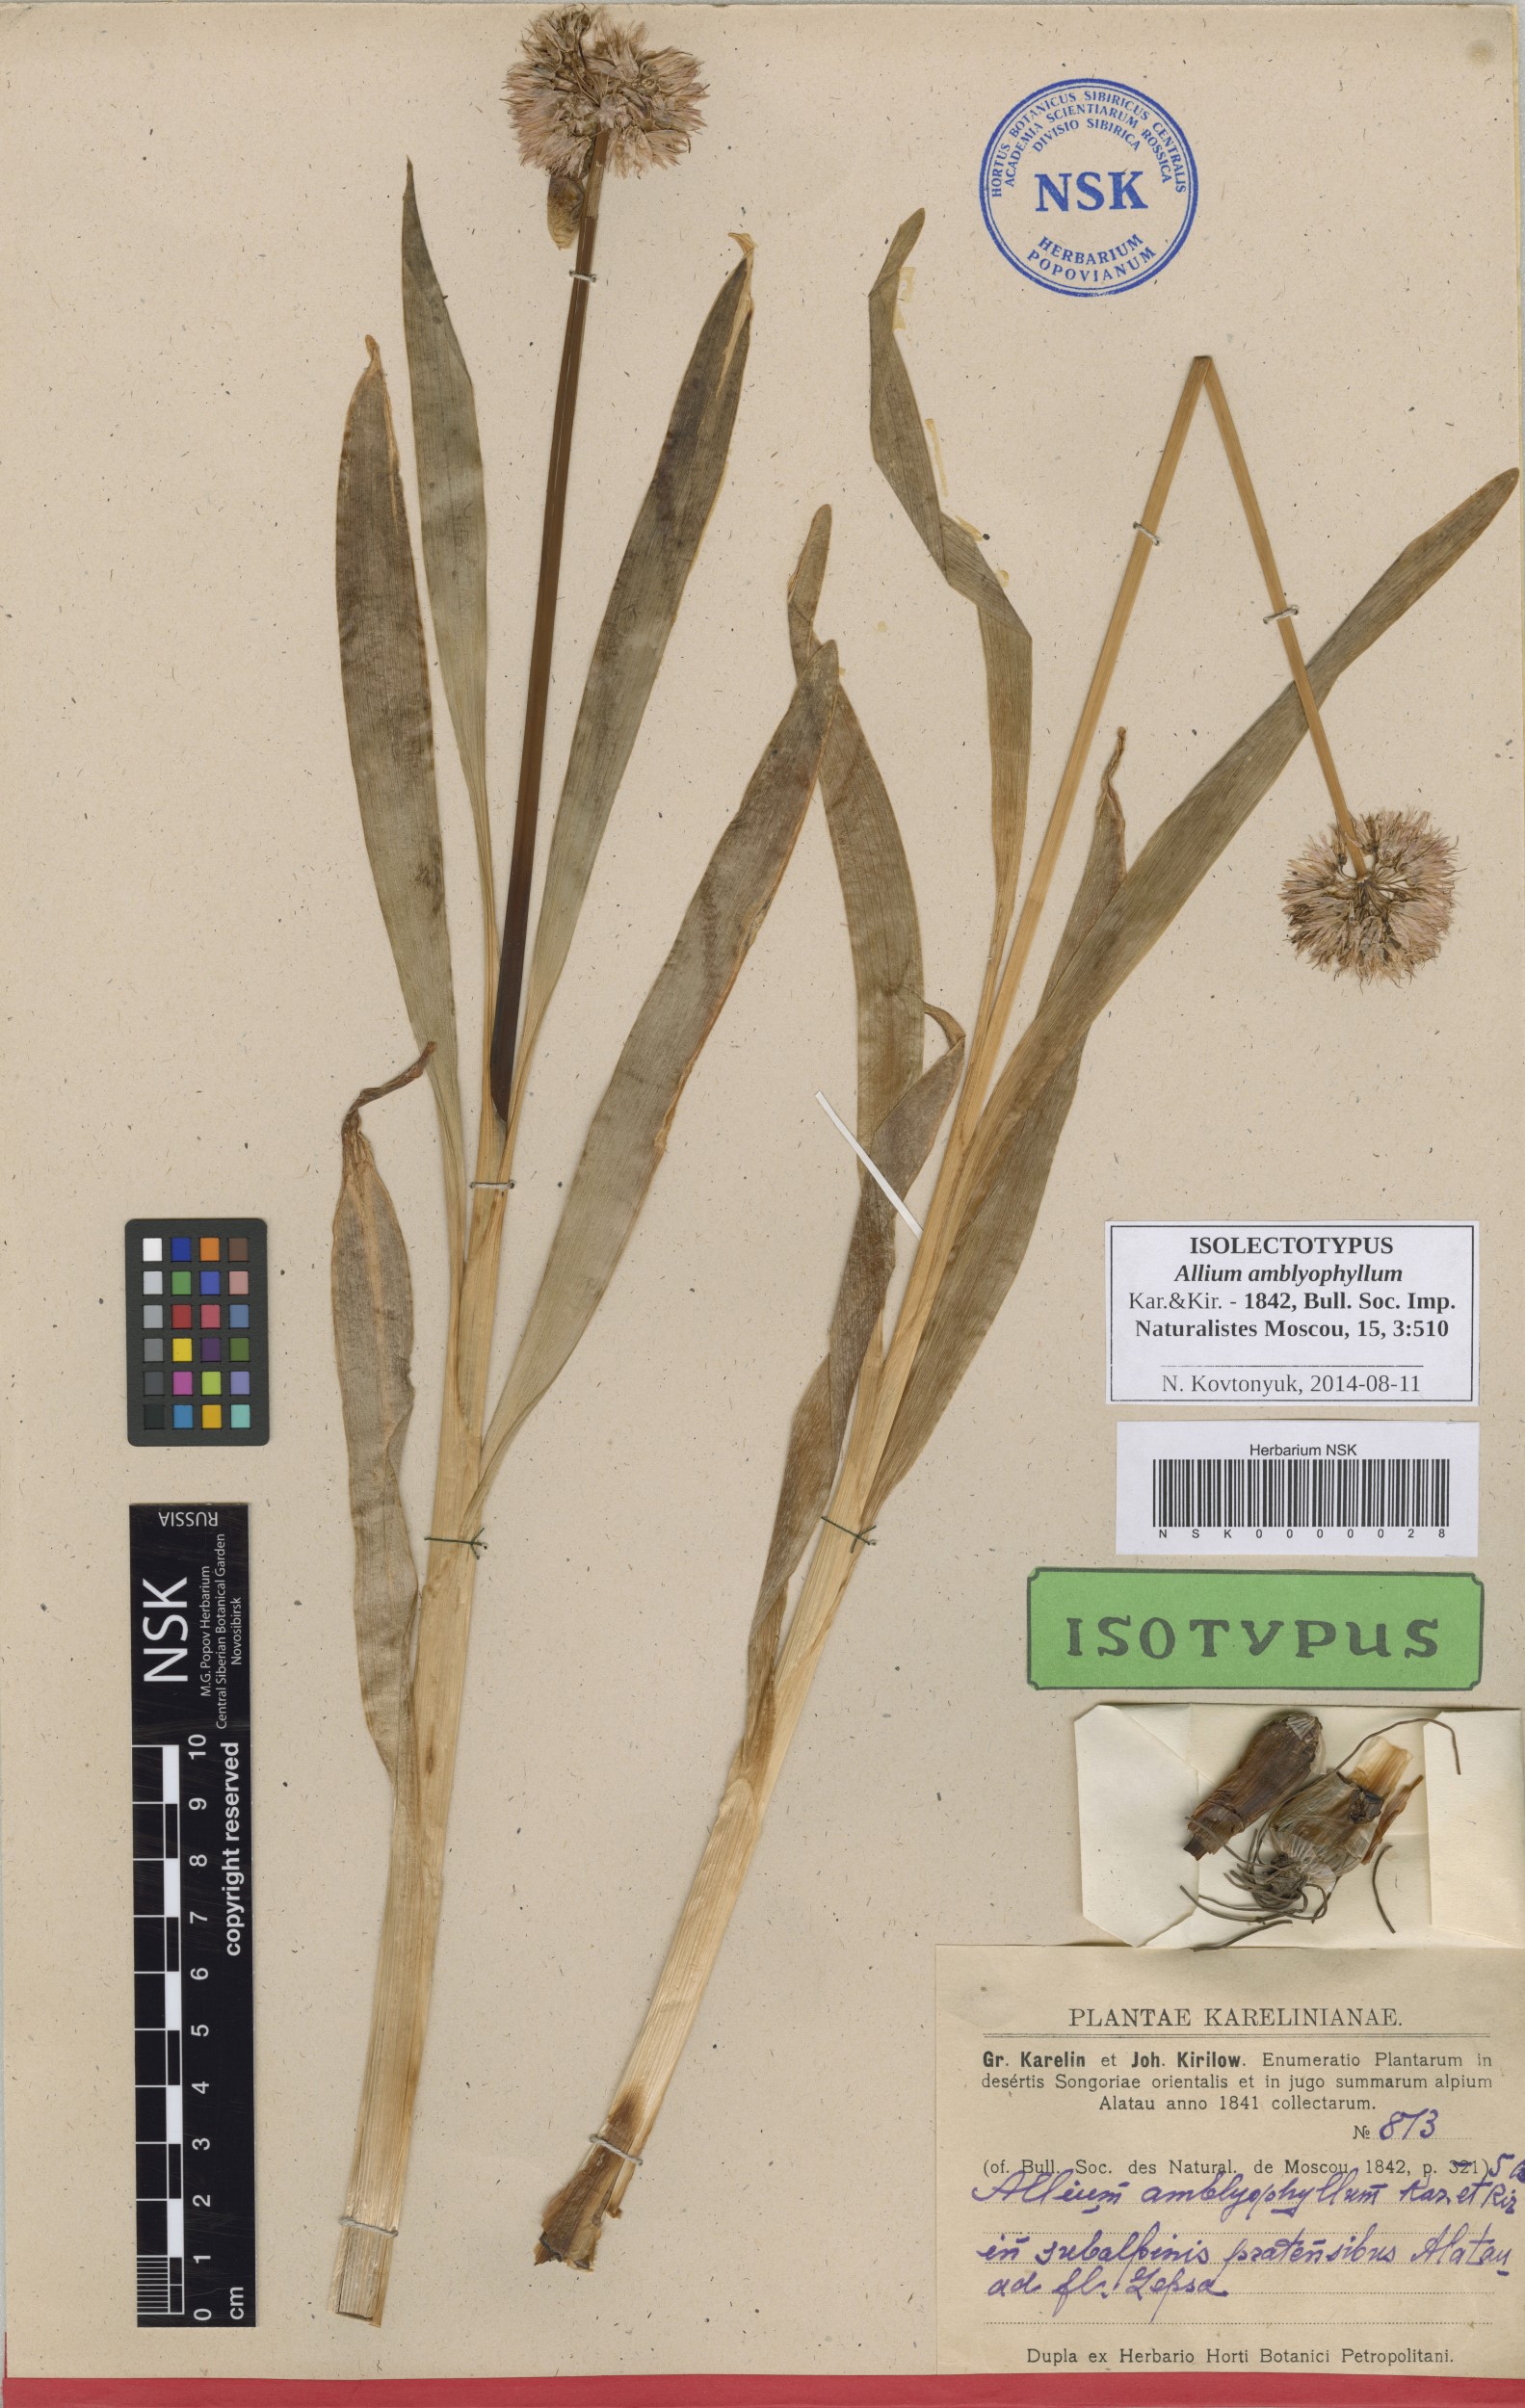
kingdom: Plantae
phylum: Tracheophyta
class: Liliopsida
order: Asparagales
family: Amaryllidaceae
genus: Allium
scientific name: Allium platyspathum
